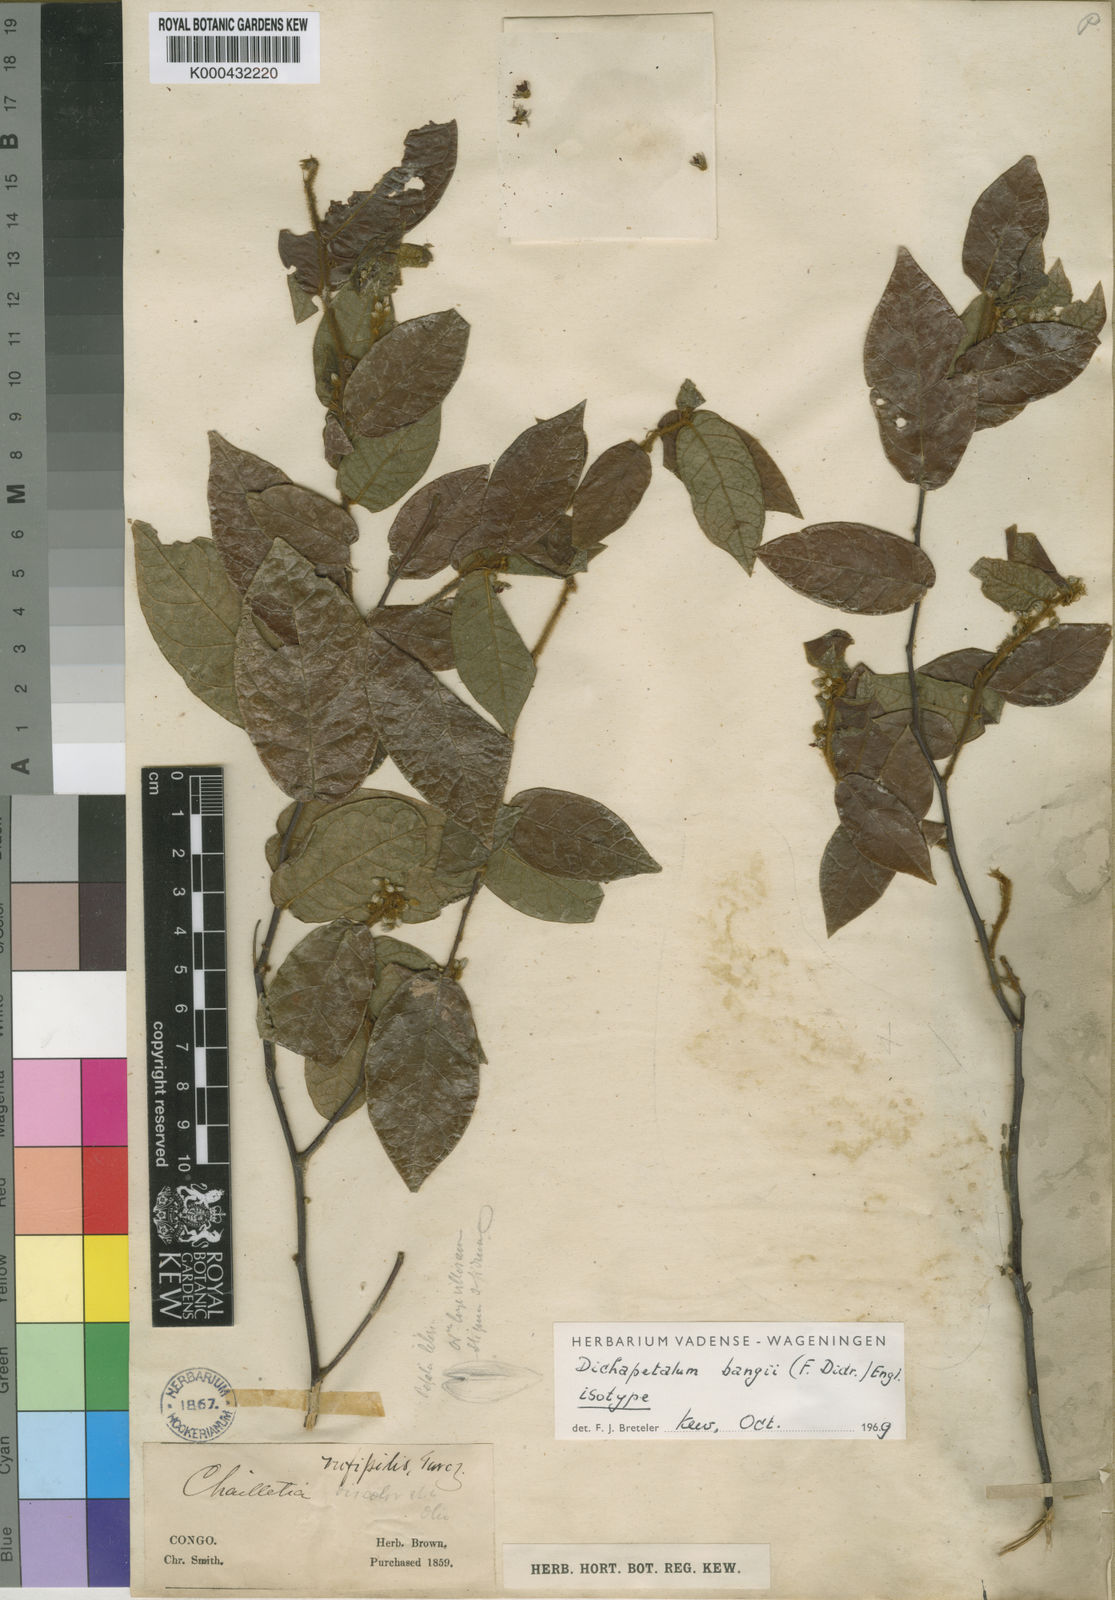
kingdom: Plantae
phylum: Tracheophyta
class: Magnoliopsida
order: Malpighiales
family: Dichapetalaceae
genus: Dichapetalum
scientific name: Dichapetalum bangii
